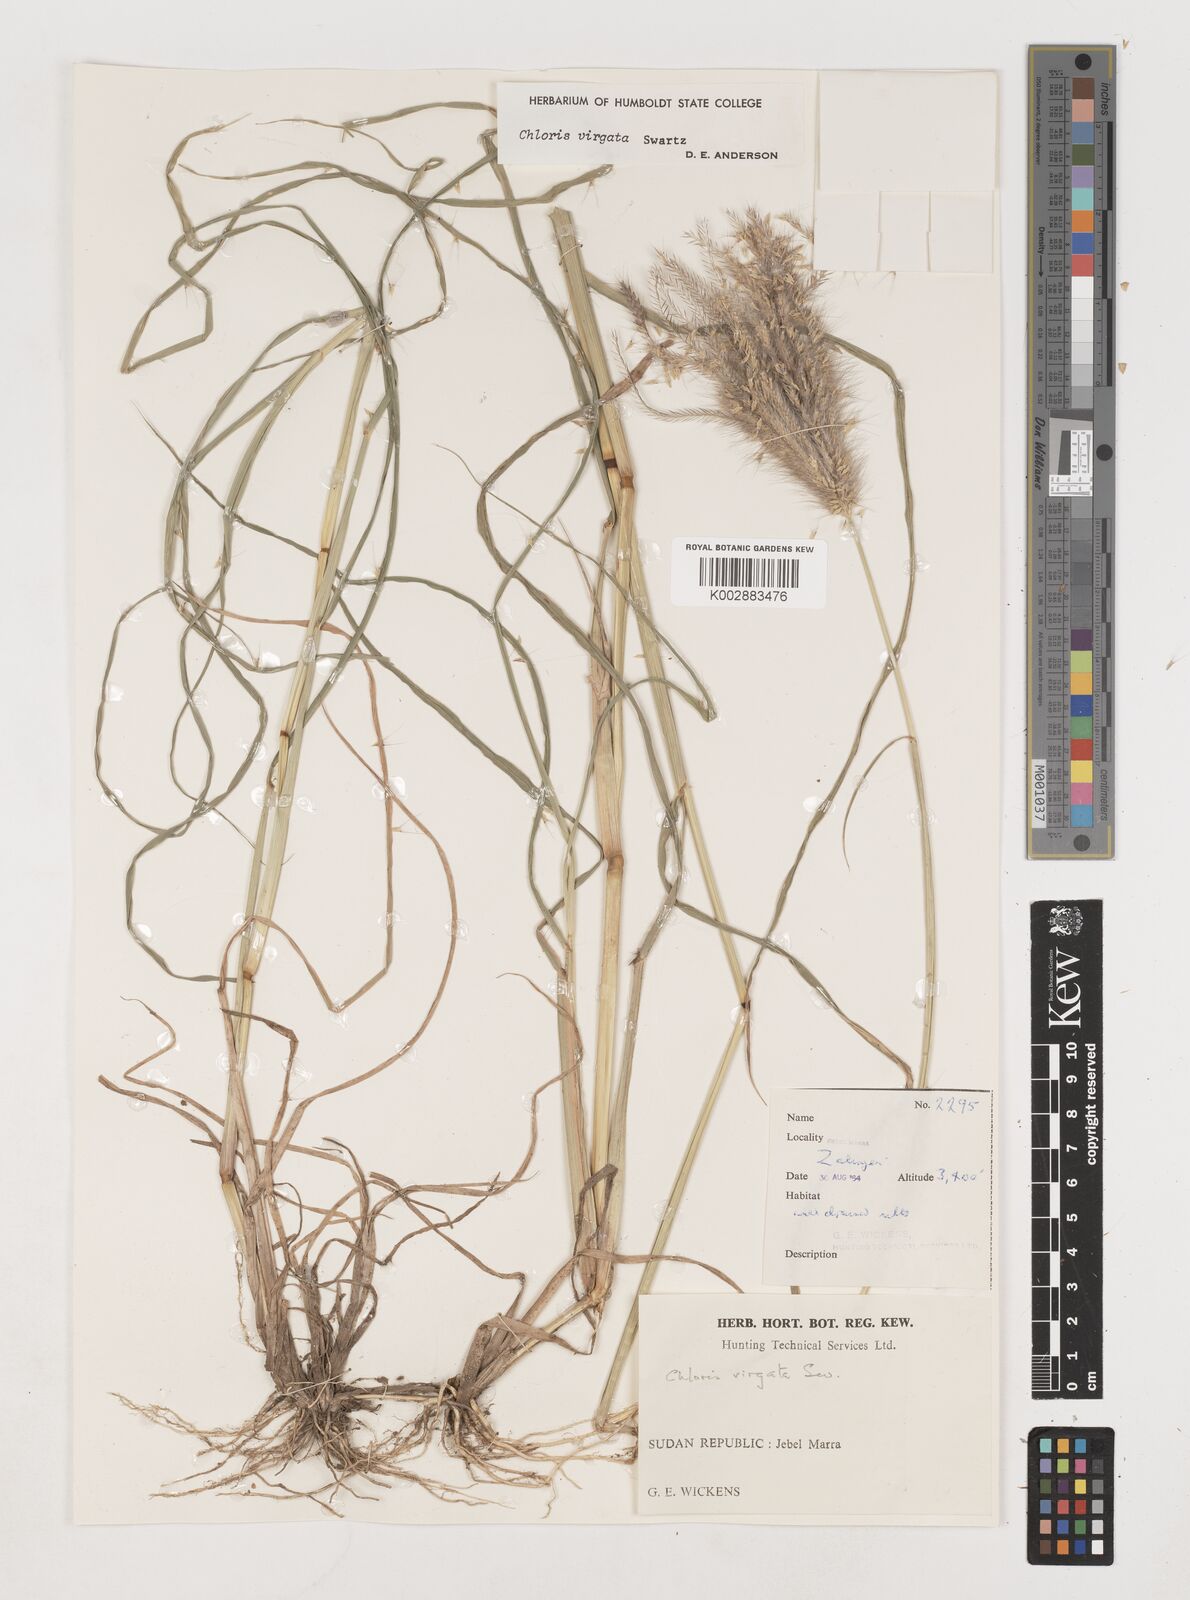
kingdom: Plantae
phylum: Tracheophyta
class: Liliopsida
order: Poales
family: Poaceae
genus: Chloris
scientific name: Chloris virgata
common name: Feathery rhodes-grass
